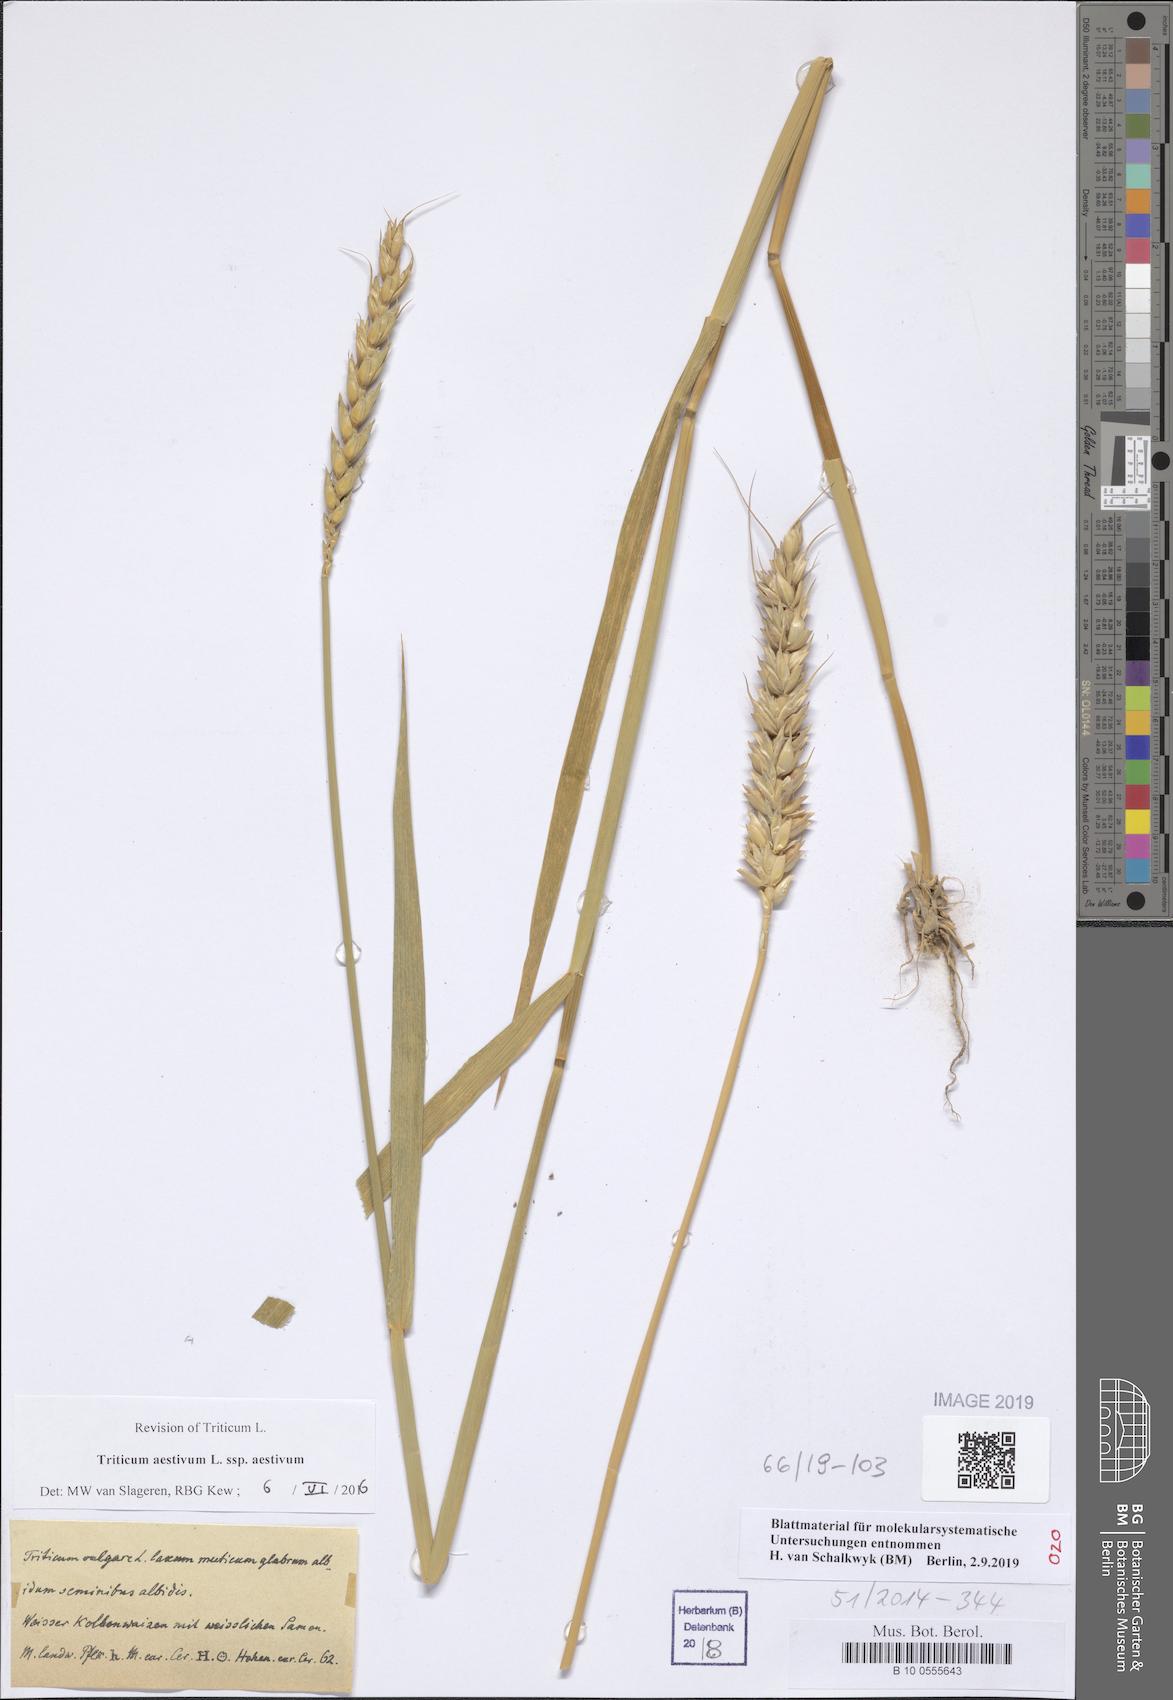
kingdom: Plantae
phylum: Tracheophyta
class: Liliopsida
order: Poales
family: Poaceae
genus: Triticum
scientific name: Triticum aestivum
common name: Common wheat
